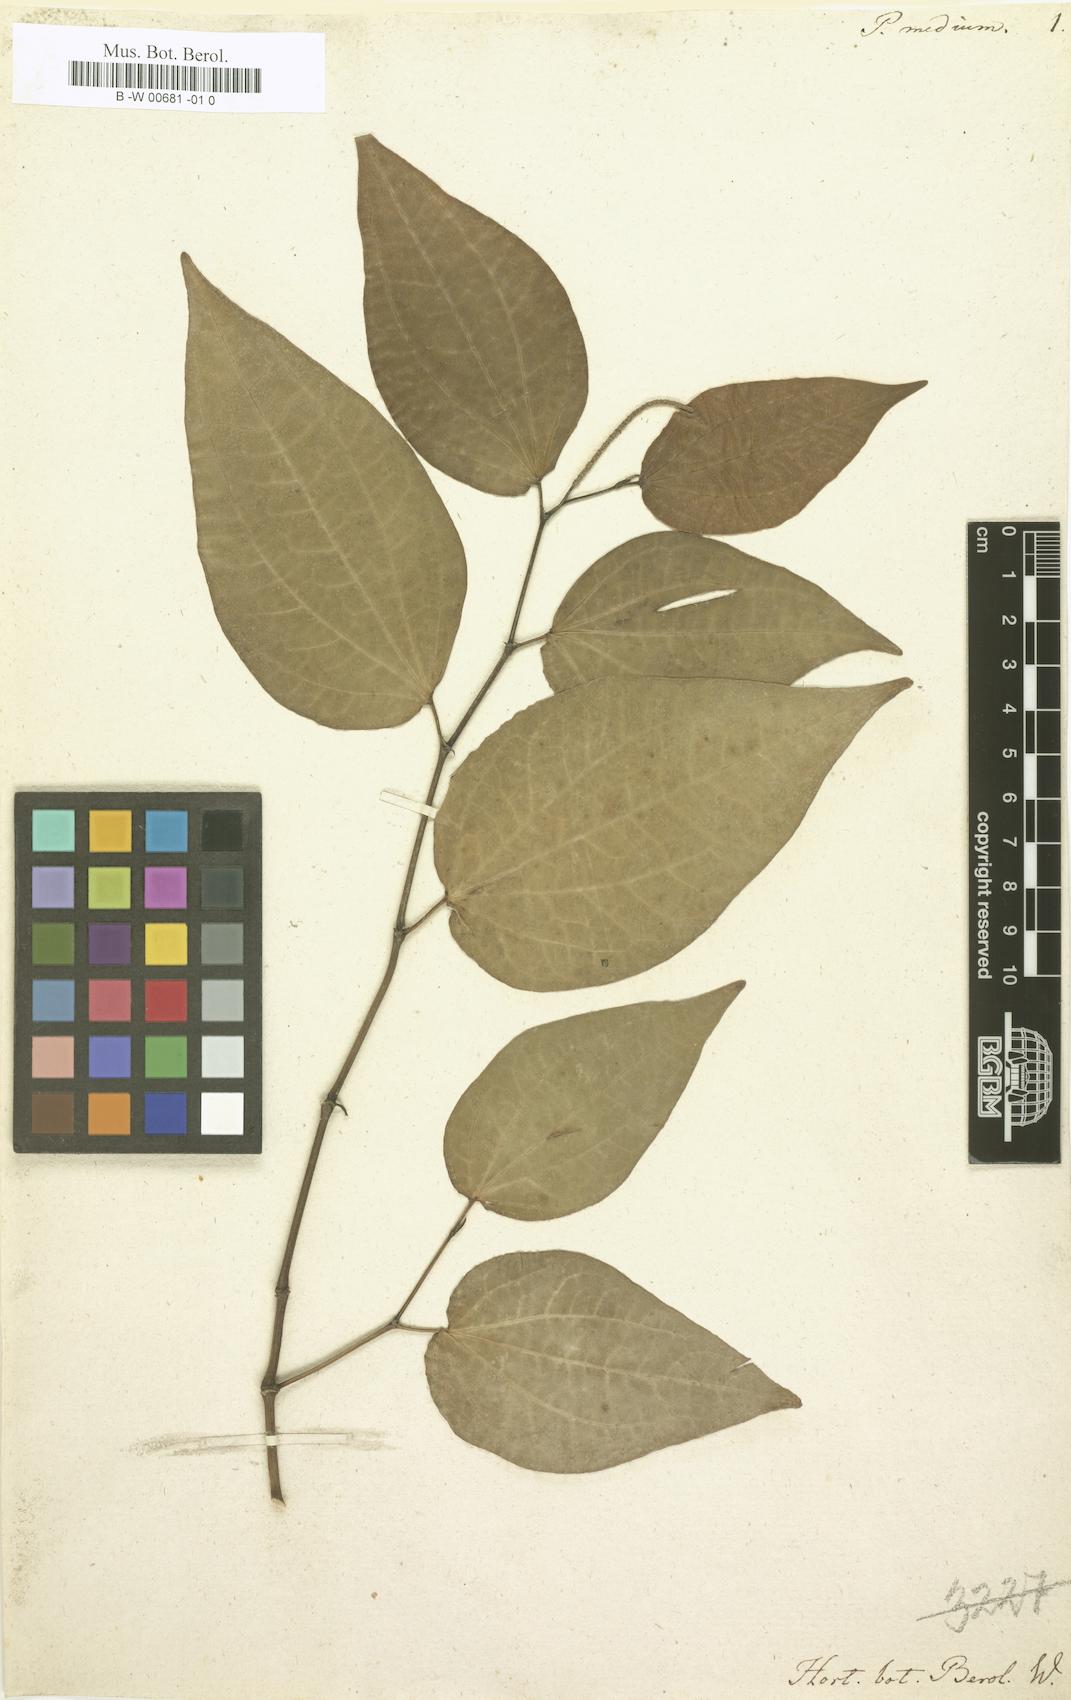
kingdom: Plantae
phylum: Tracheophyta
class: Magnoliopsida
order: Piperales
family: Piperaceae
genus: Piper
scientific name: Piper amalago
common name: Pepper-elder
